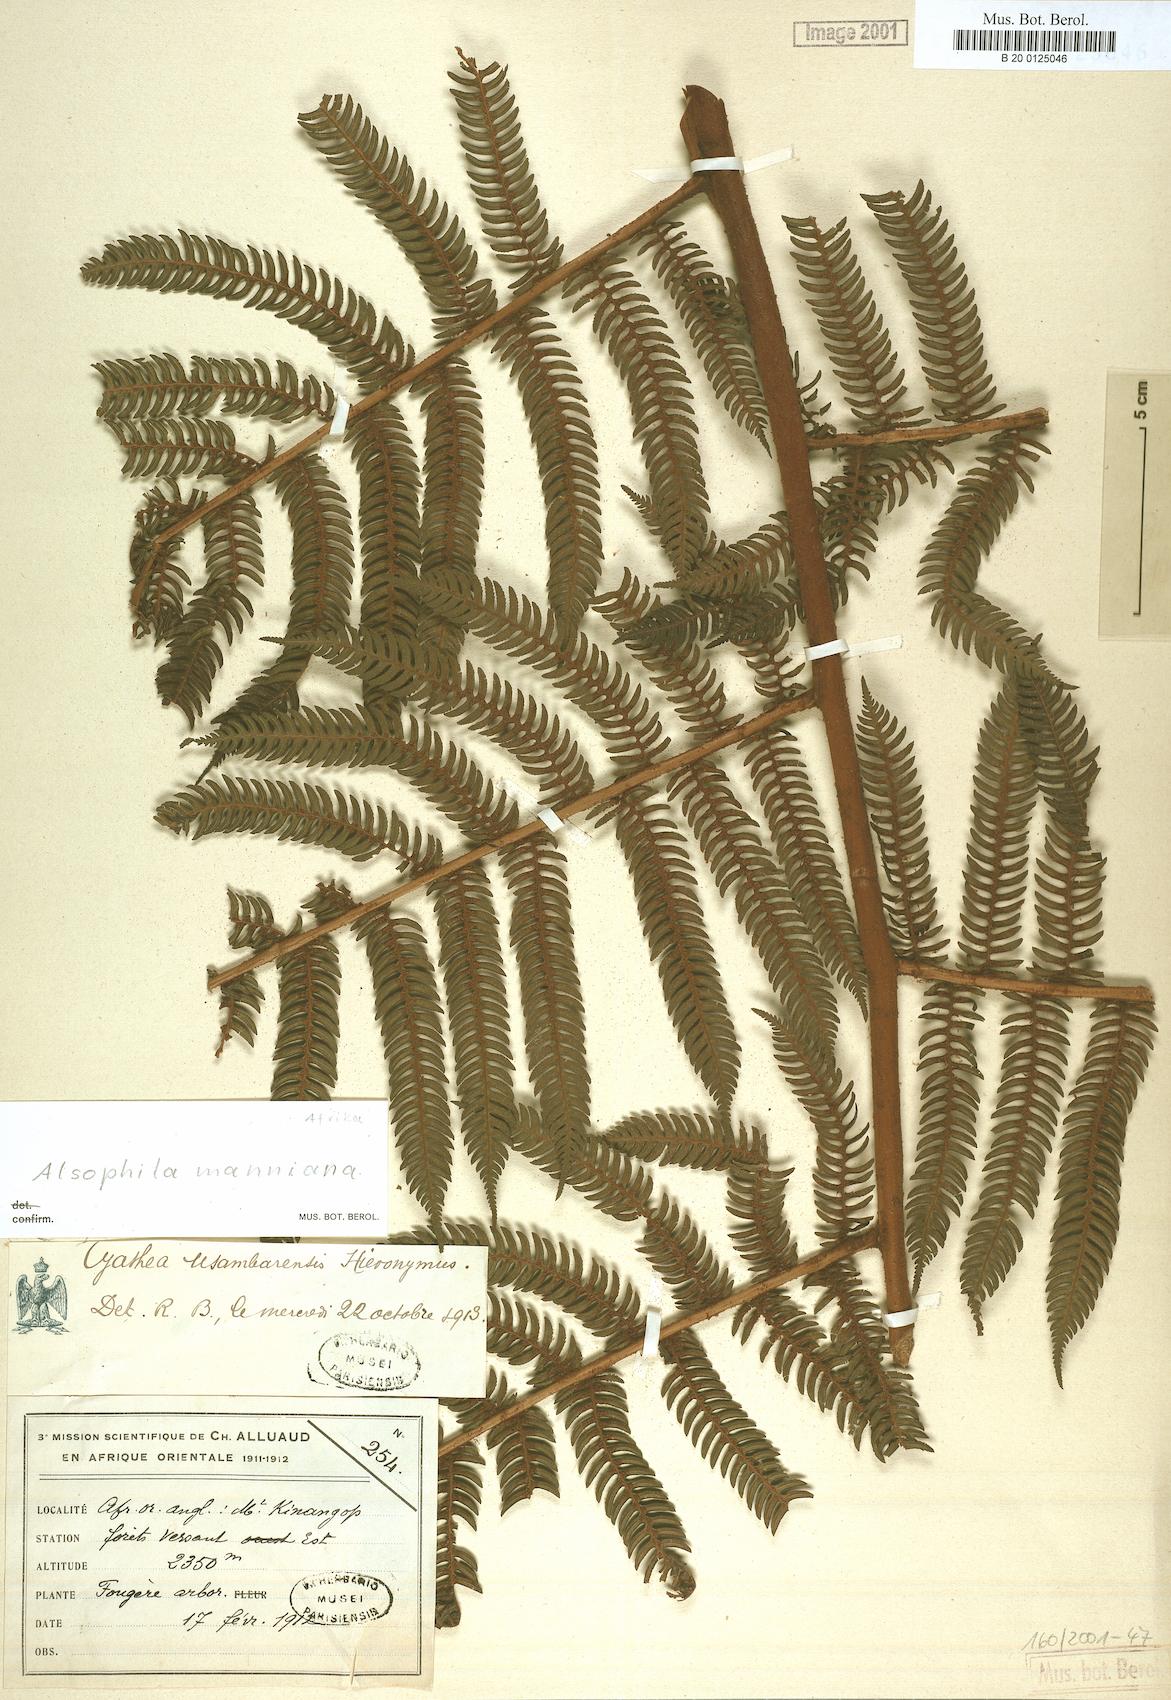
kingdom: Plantae
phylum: Tracheophyta
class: Polypodiopsida
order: Cyatheales
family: Cyatheaceae
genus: Alsophila
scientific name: Alsophila manniana
